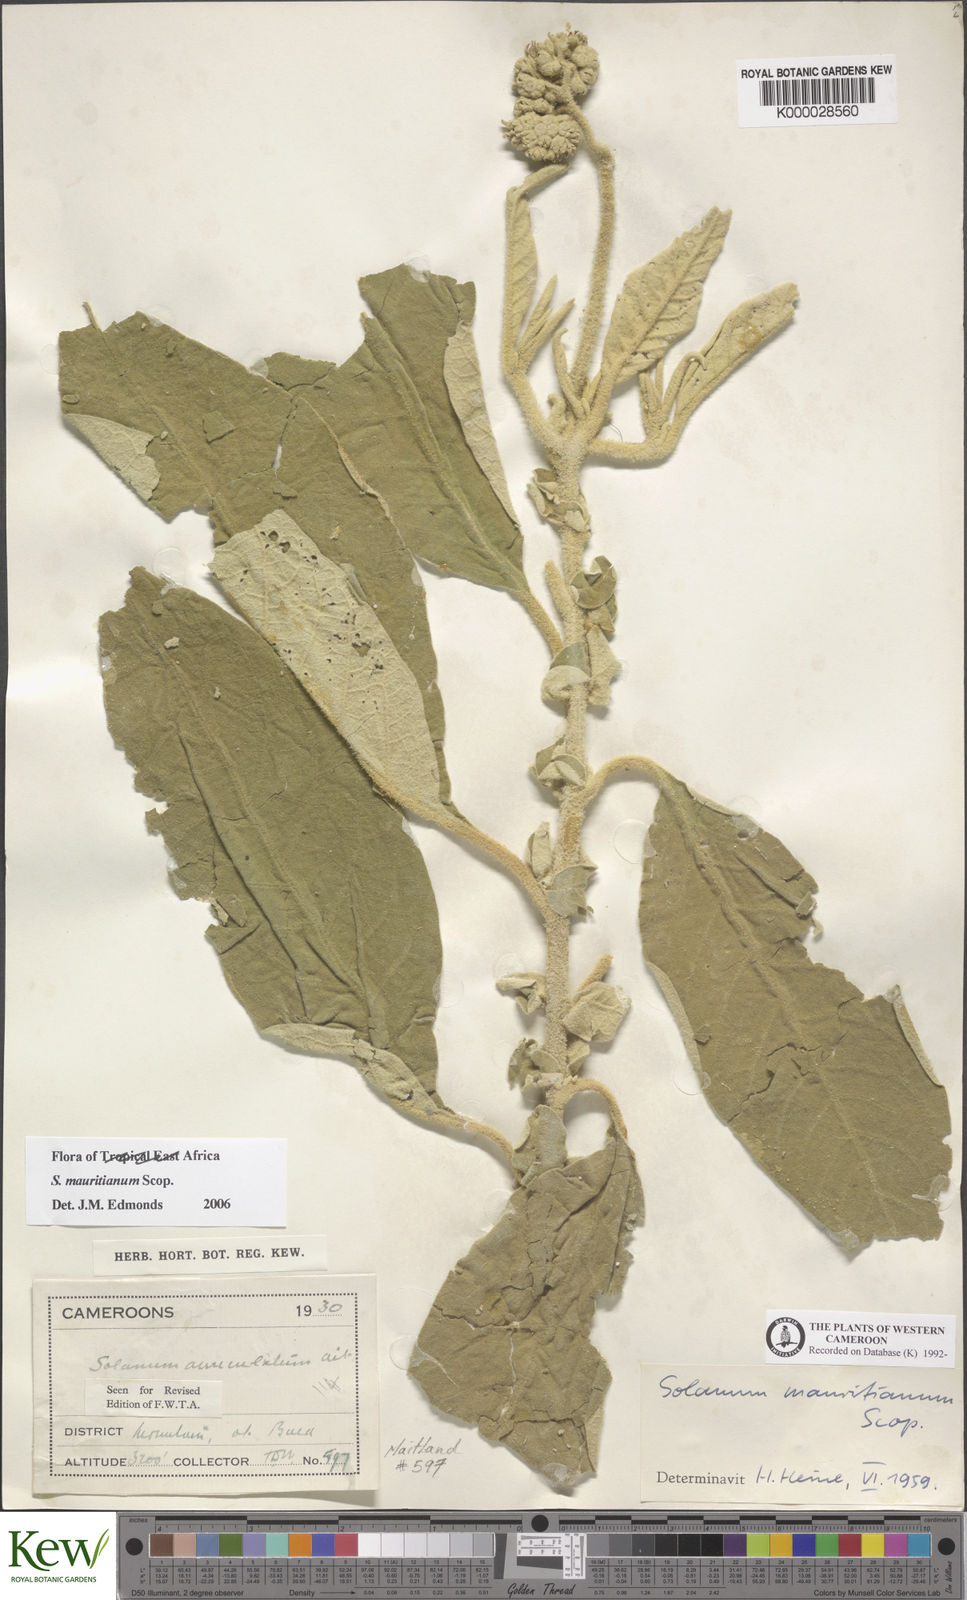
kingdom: Plantae
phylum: Tracheophyta
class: Magnoliopsida
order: Solanales
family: Solanaceae
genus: Solanum
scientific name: Solanum mauritianum
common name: Earleaf nightshade
